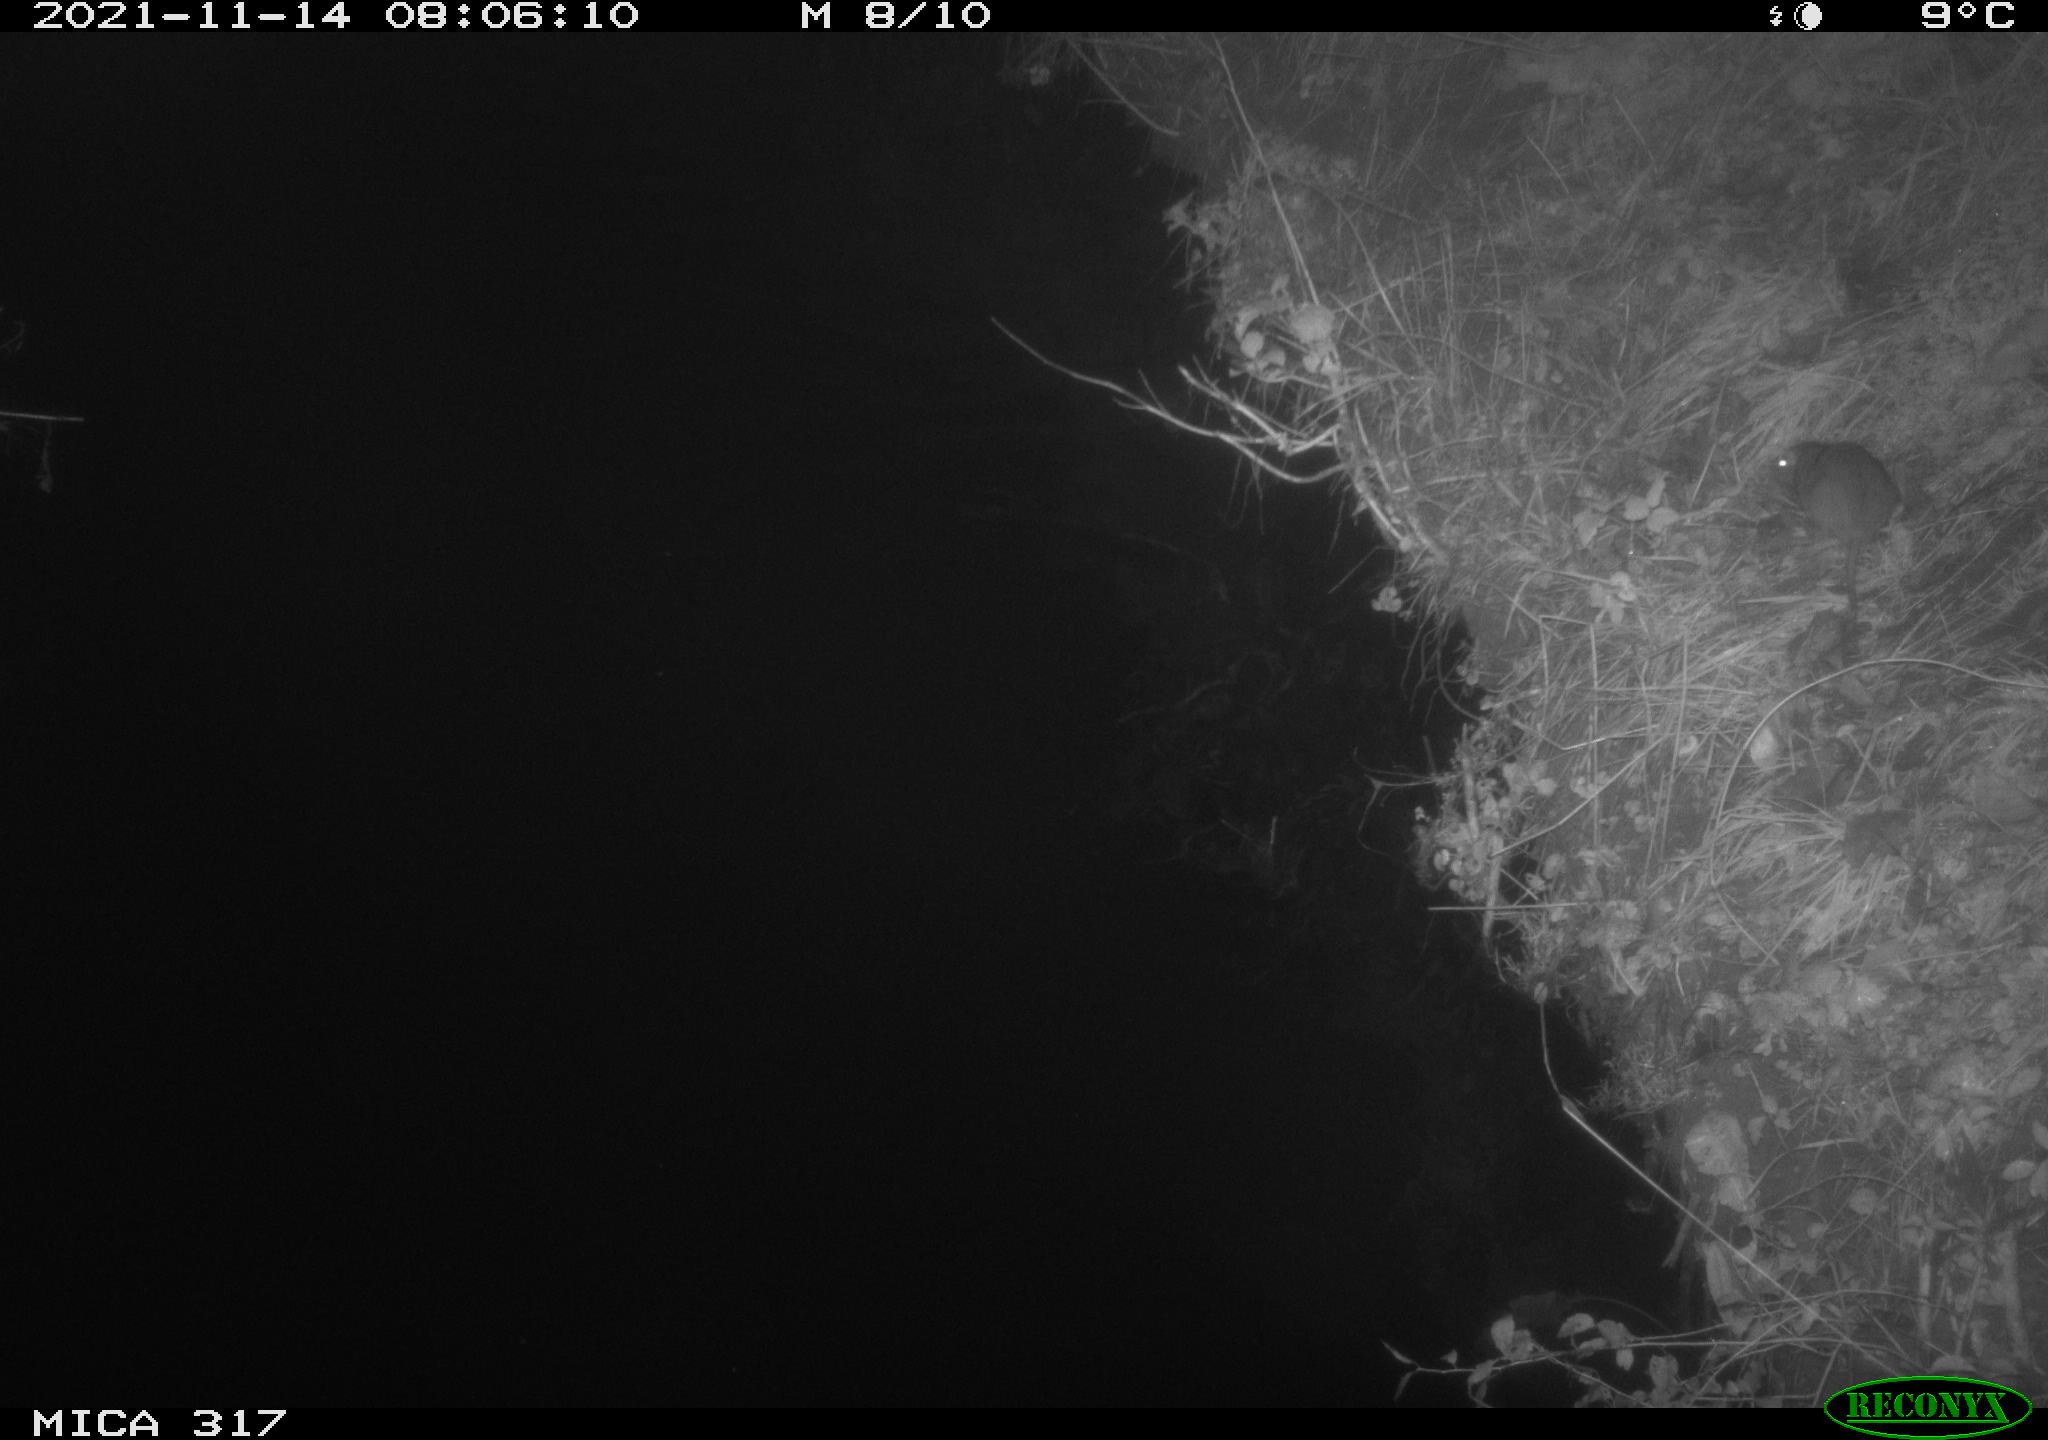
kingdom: Animalia
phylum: Chordata
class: Mammalia
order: Rodentia
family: Muridae
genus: Rattus
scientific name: Rattus norvegicus
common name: Brown rat
